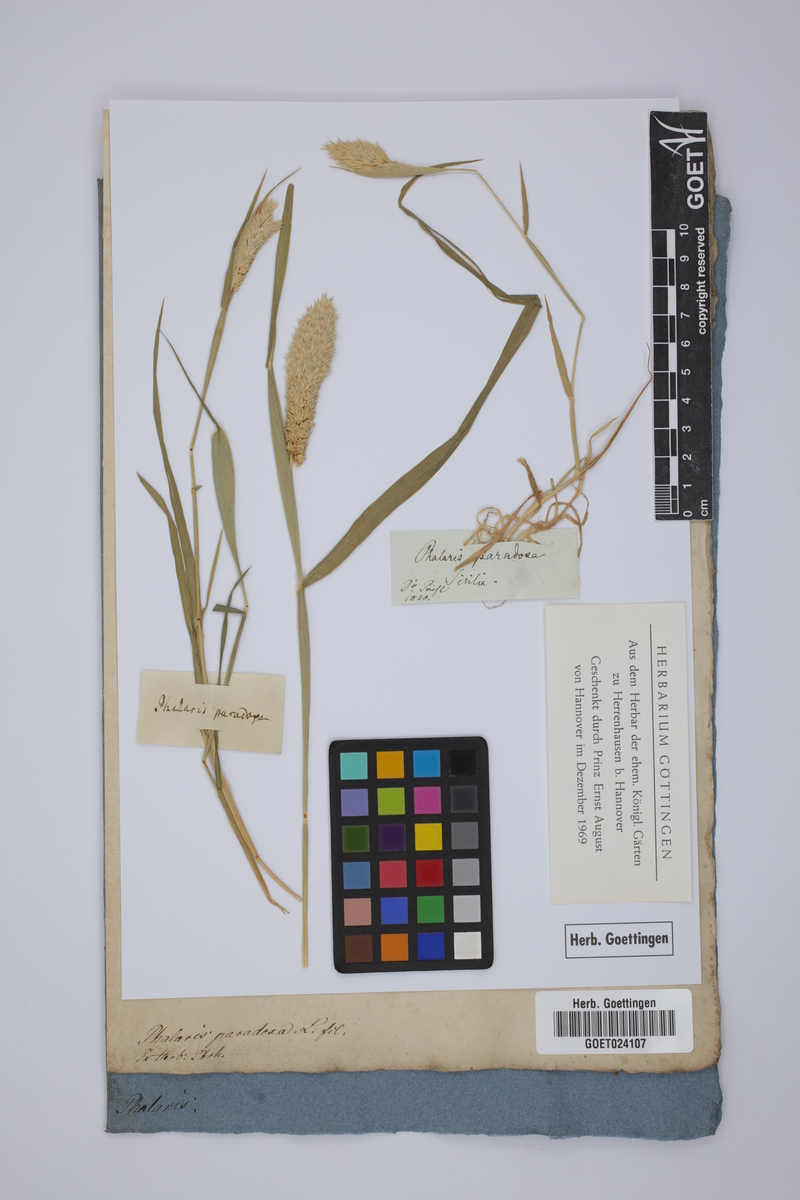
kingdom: Plantae
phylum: Tracheophyta
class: Liliopsida
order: Poales
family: Poaceae
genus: Phalaris
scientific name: Phalaris paradoxa
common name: Awned canary-grass
